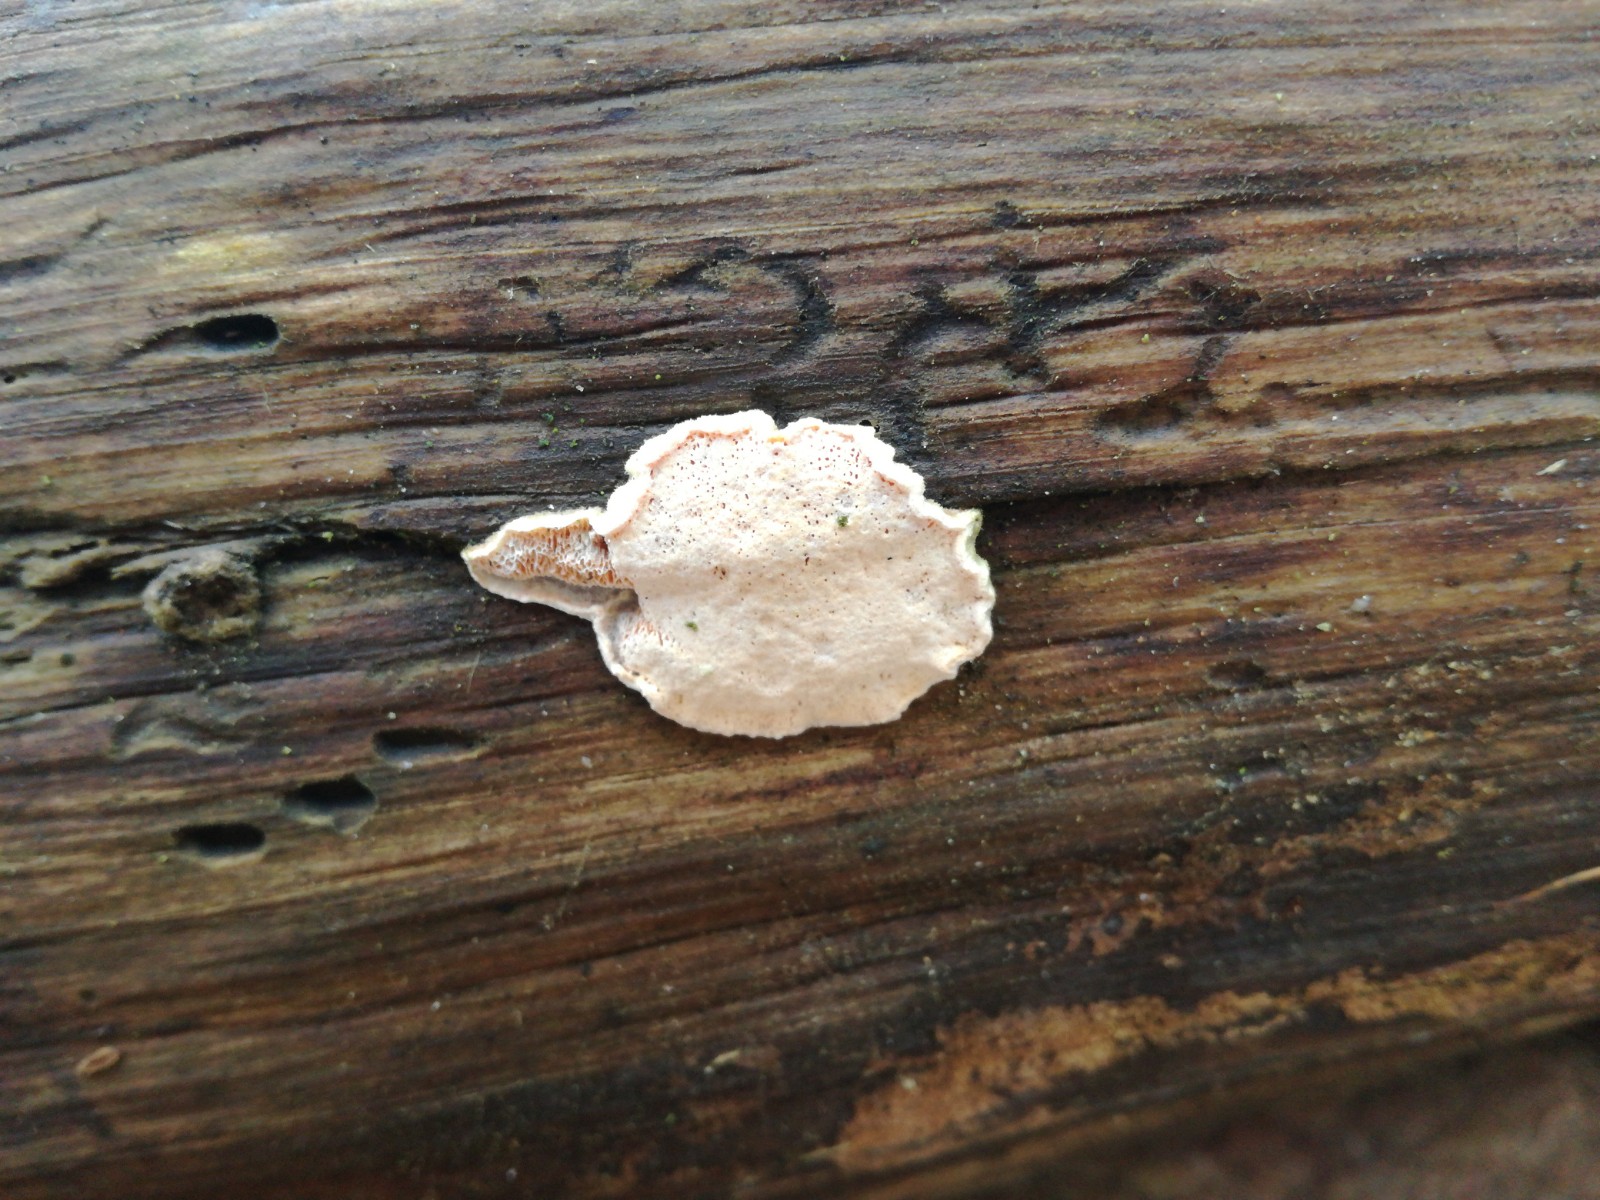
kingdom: Fungi
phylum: Basidiomycota
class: Agaricomycetes
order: Polyporales
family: Incrustoporiaceae
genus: Skeletocutis
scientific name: Skeletocutis amorpha
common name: orange krystalporesvamp
